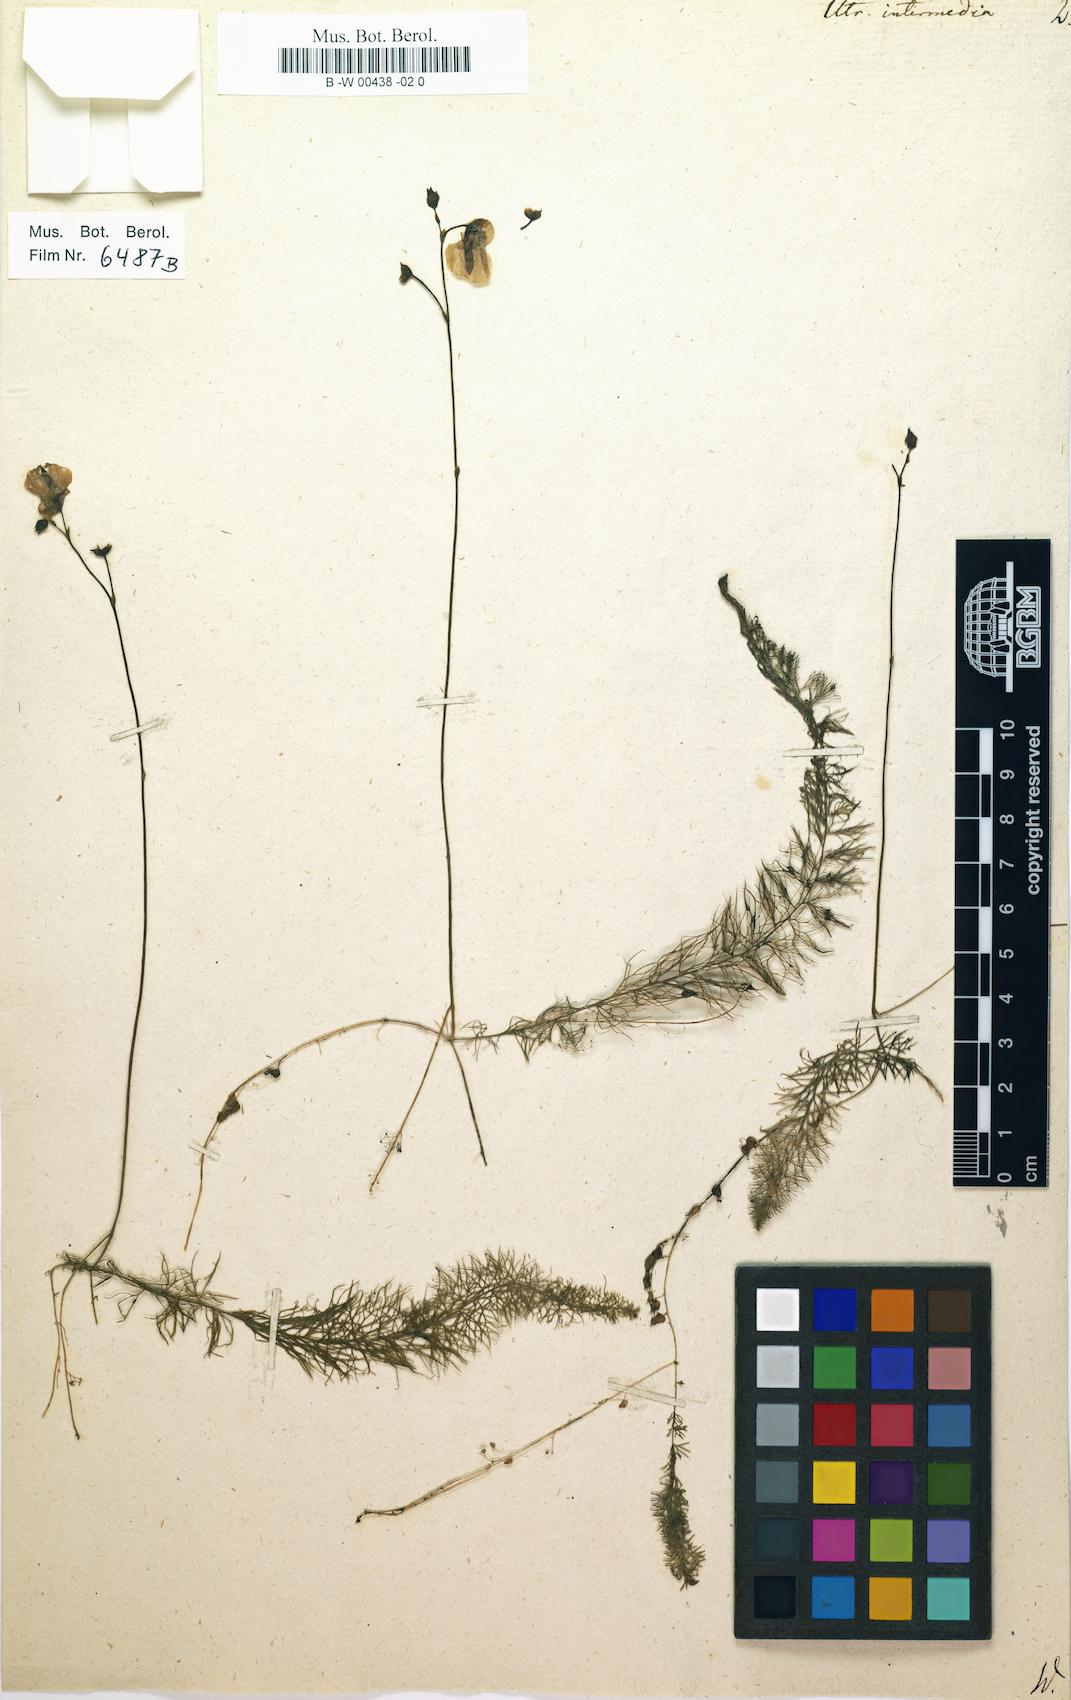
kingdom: Plantae
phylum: Tracheophyta
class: Magnoliopsida
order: Lamiales
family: Lentibulariaceae
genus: Utricularia
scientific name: Utricularia intermedia
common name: Intermediate bladderwort
